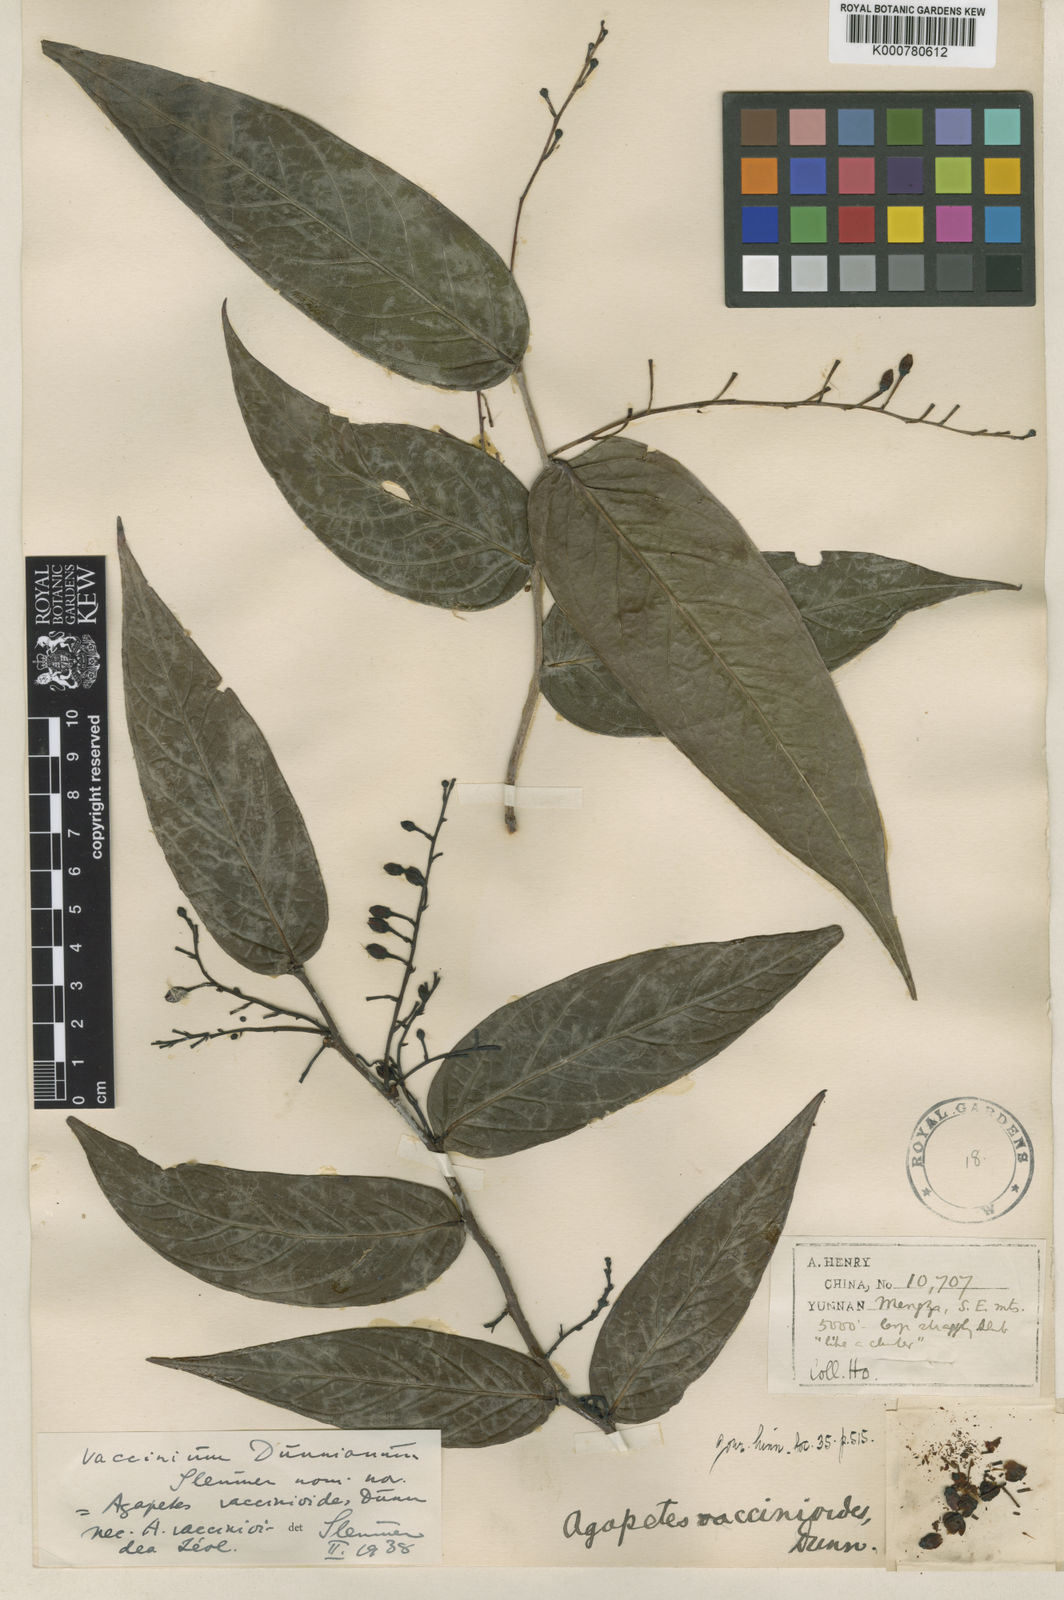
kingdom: Plantae
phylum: Tracheophyta
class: Magnoliopsida
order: Ericales
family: Ericaceae
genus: Vaccinium
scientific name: Vaccinium dunnianum
